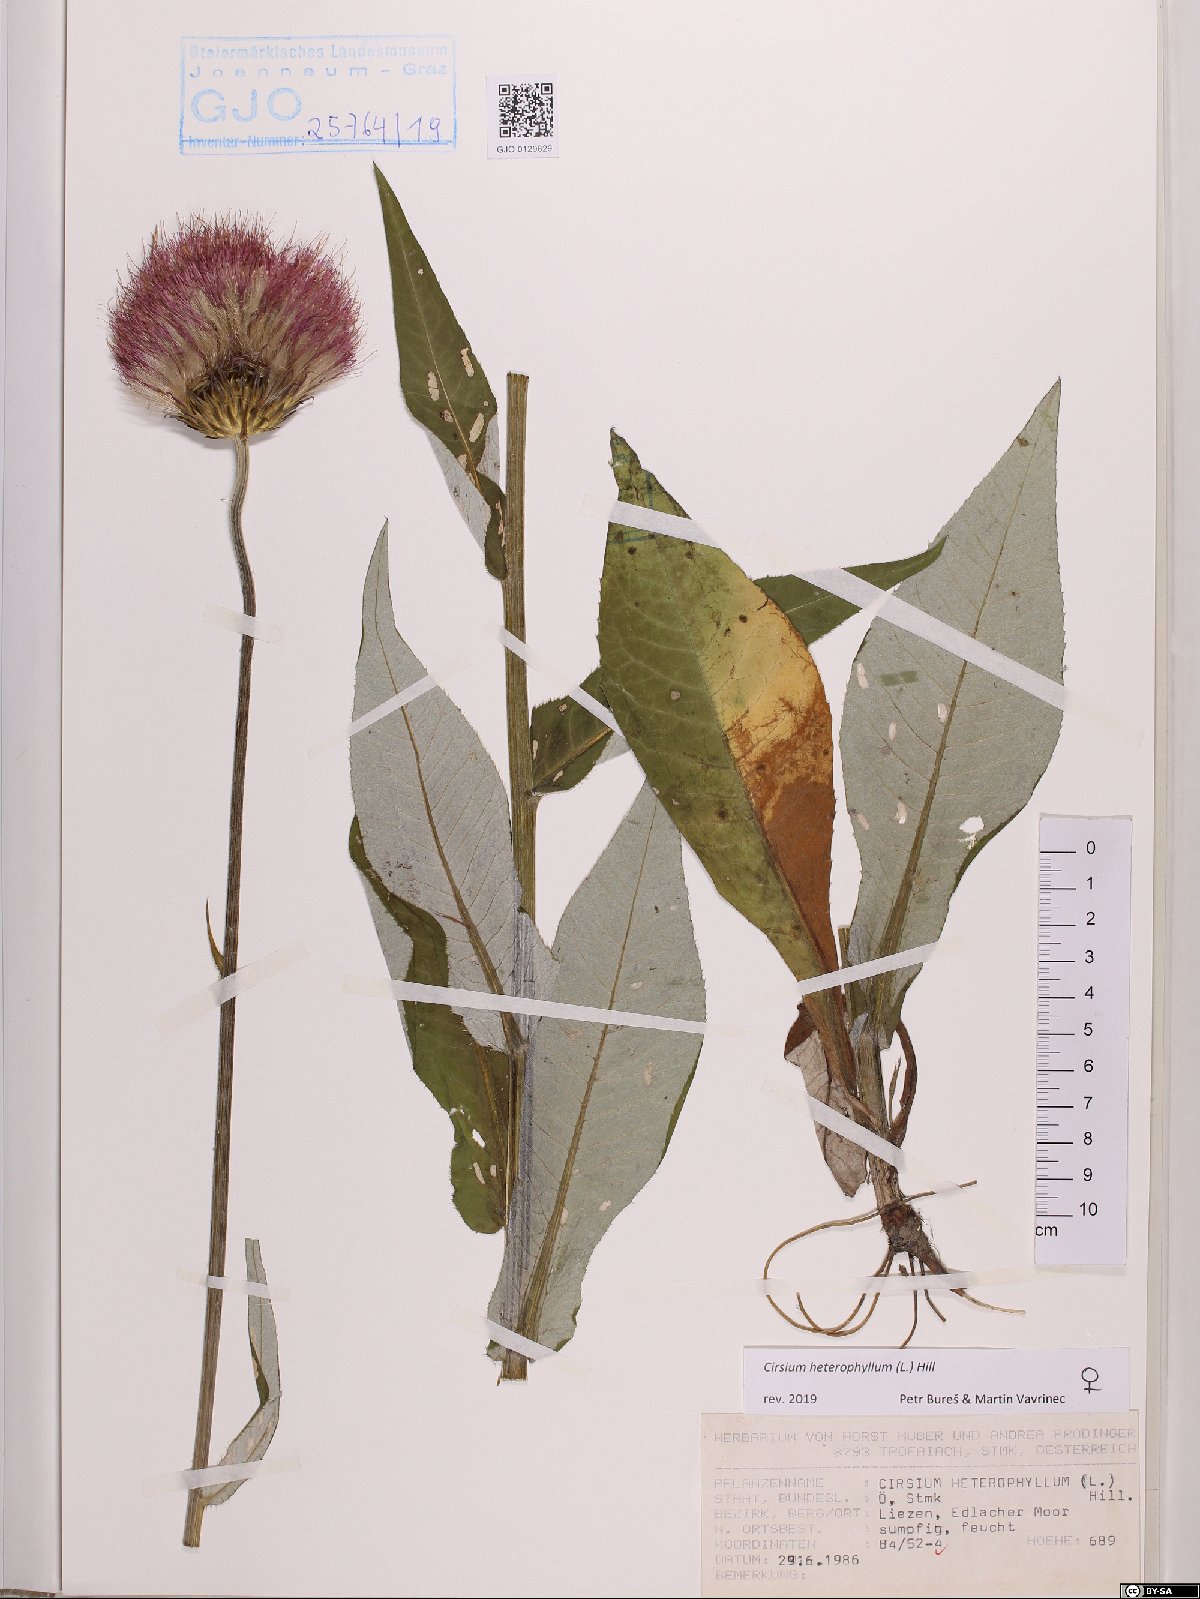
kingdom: Plantae
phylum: Tracheophyta
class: Magnoliopsida
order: Asterales
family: Asteraceae
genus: Cirsium
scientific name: Cirsium heterophyllum
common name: Melancholy thistle
